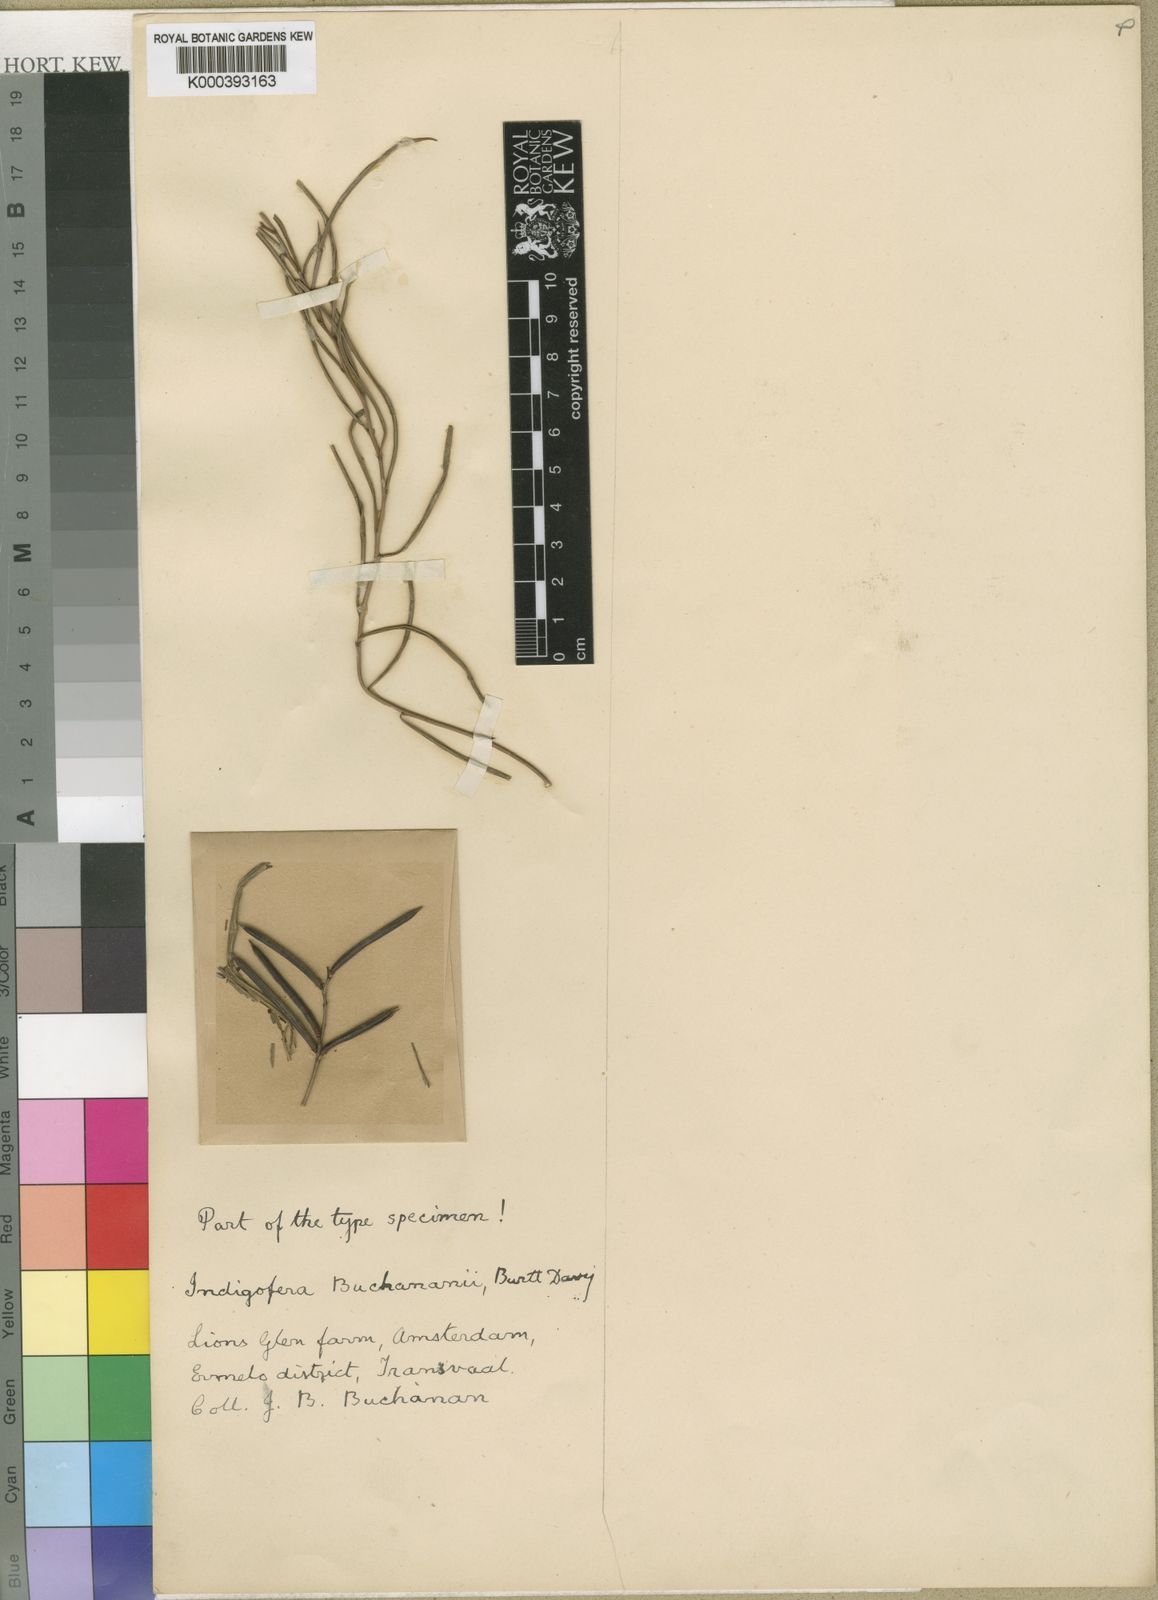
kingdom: Plantae
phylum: Tracheophyta
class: Magnoliopsida
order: Fabales
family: Fabaceae
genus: Indigofera
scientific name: Indigofera buchananii
